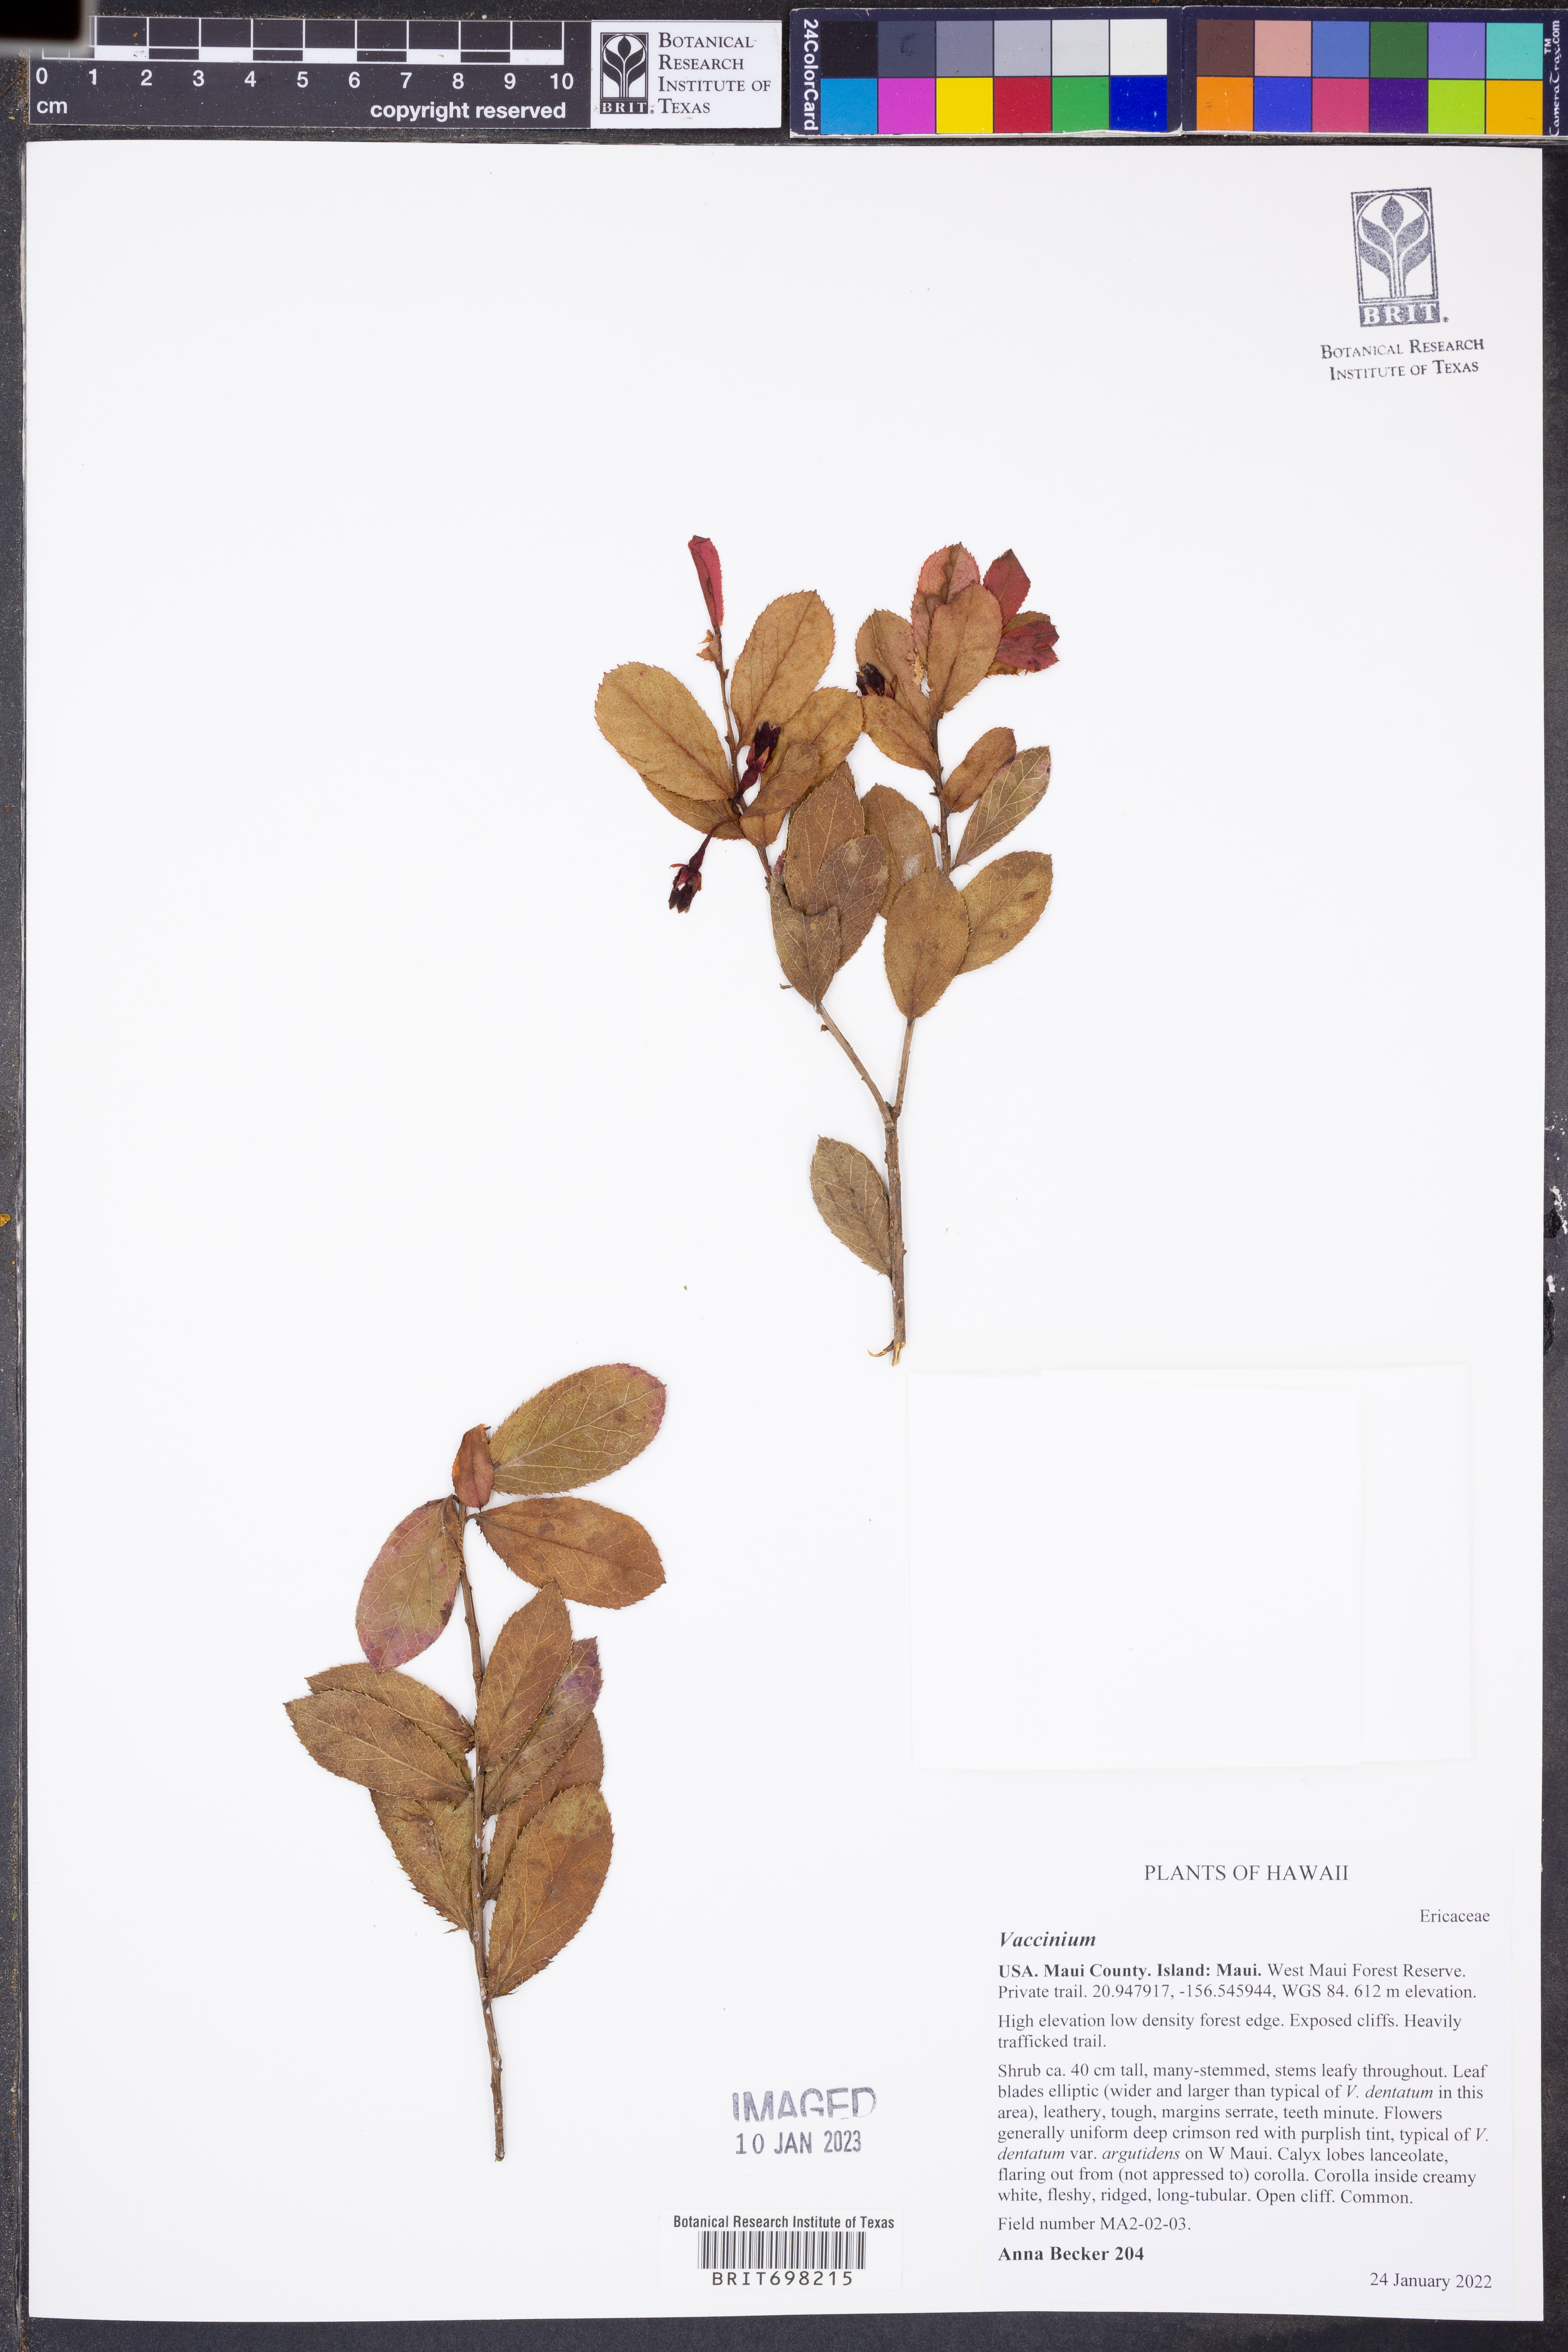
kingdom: Plantae
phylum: Tracheophyta
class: Magnoliopsida
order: Ericales
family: Ericaceae
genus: Vaccinium
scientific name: Vaccinium
